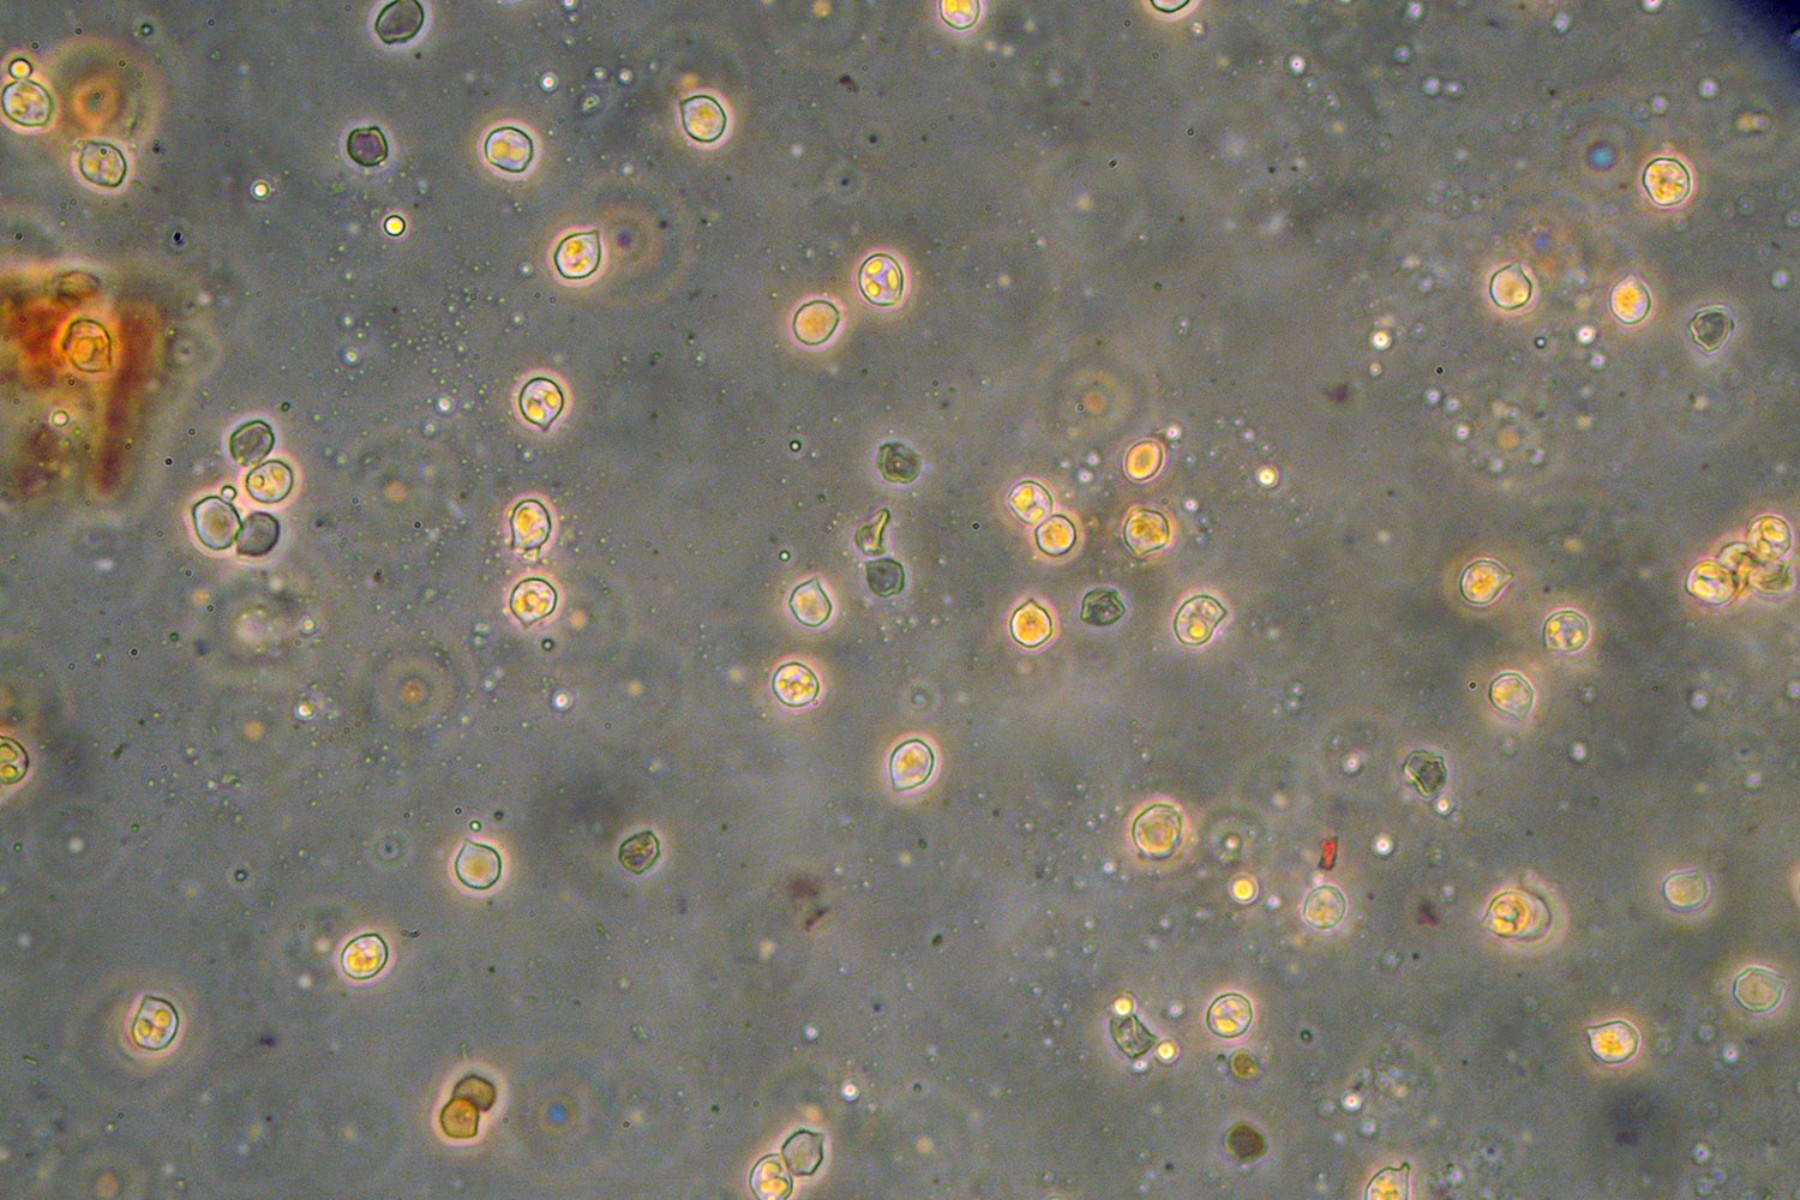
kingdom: Fungi
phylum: Basidiomycota
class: Agaricomycetes
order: Agaricales
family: Entolomataceae
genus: Entocybe
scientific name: Entocybe vinacea
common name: november-rødblad
